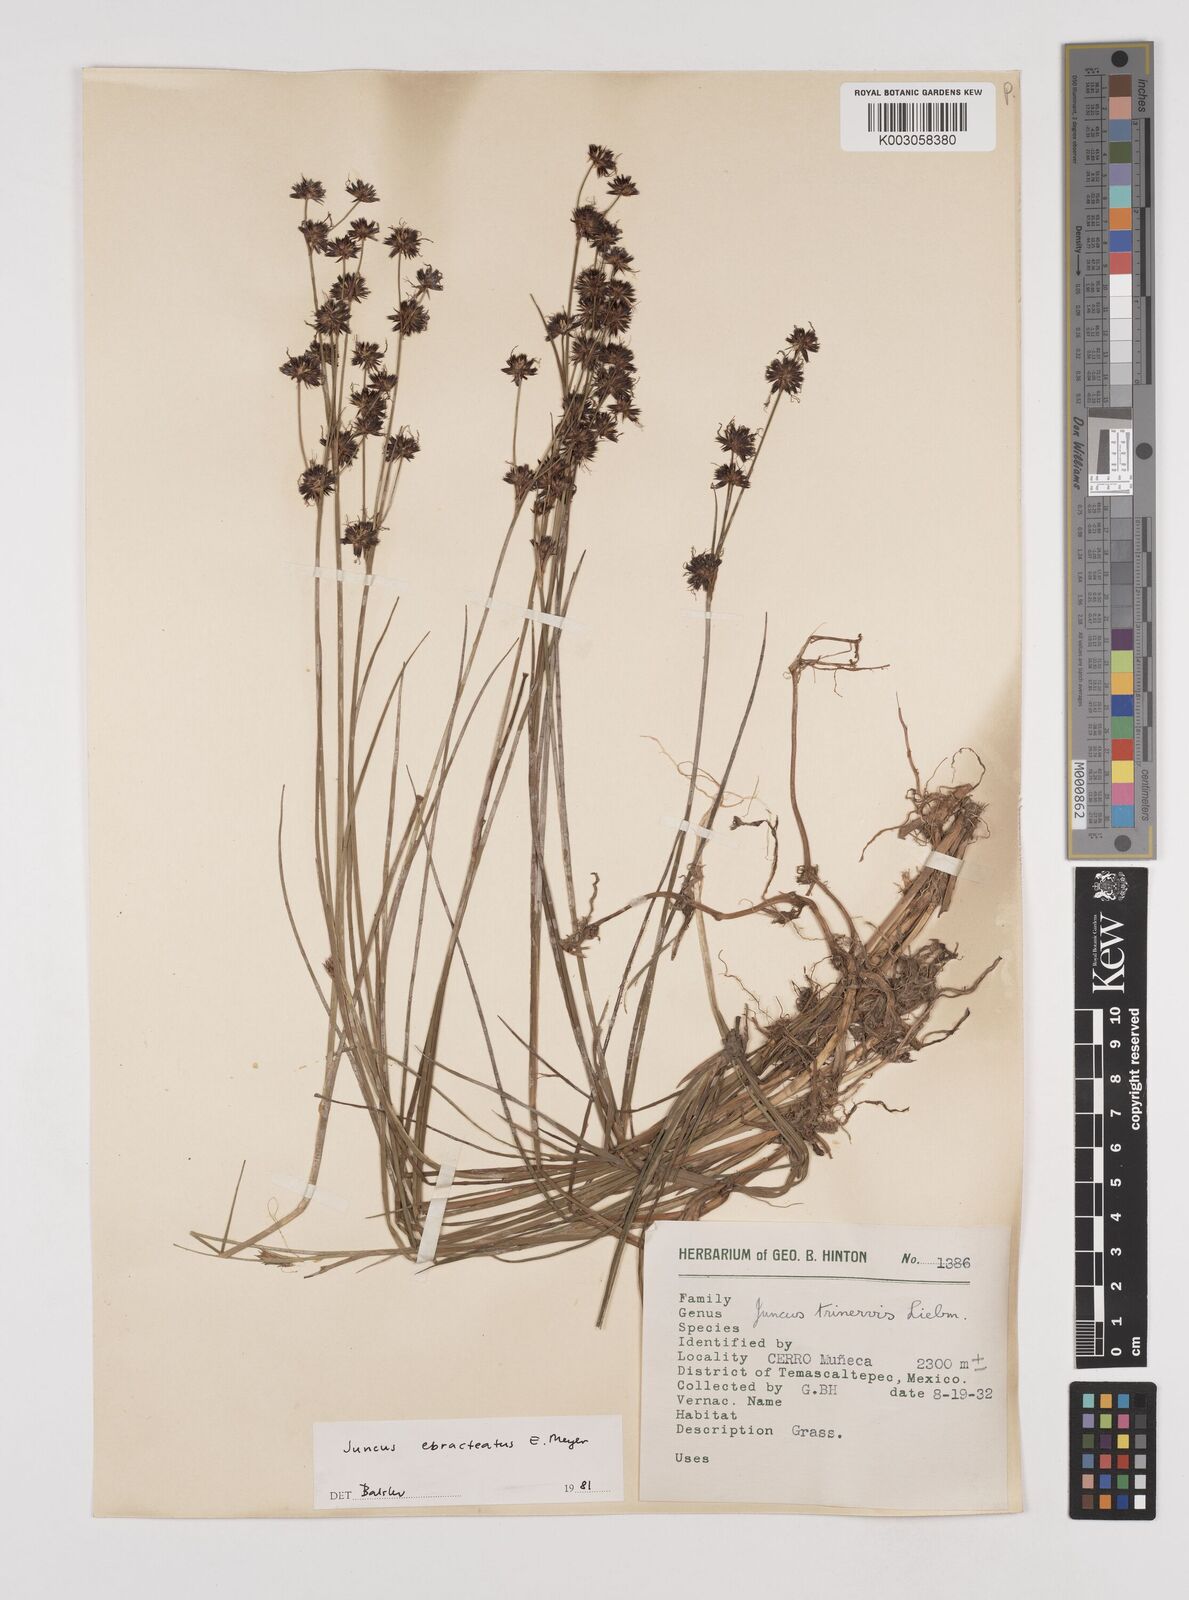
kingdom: Plantae
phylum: Tracheophyta
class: Liliopsida
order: Poales
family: Juncaceae
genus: Juncus
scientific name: Juncus ebracteatus
